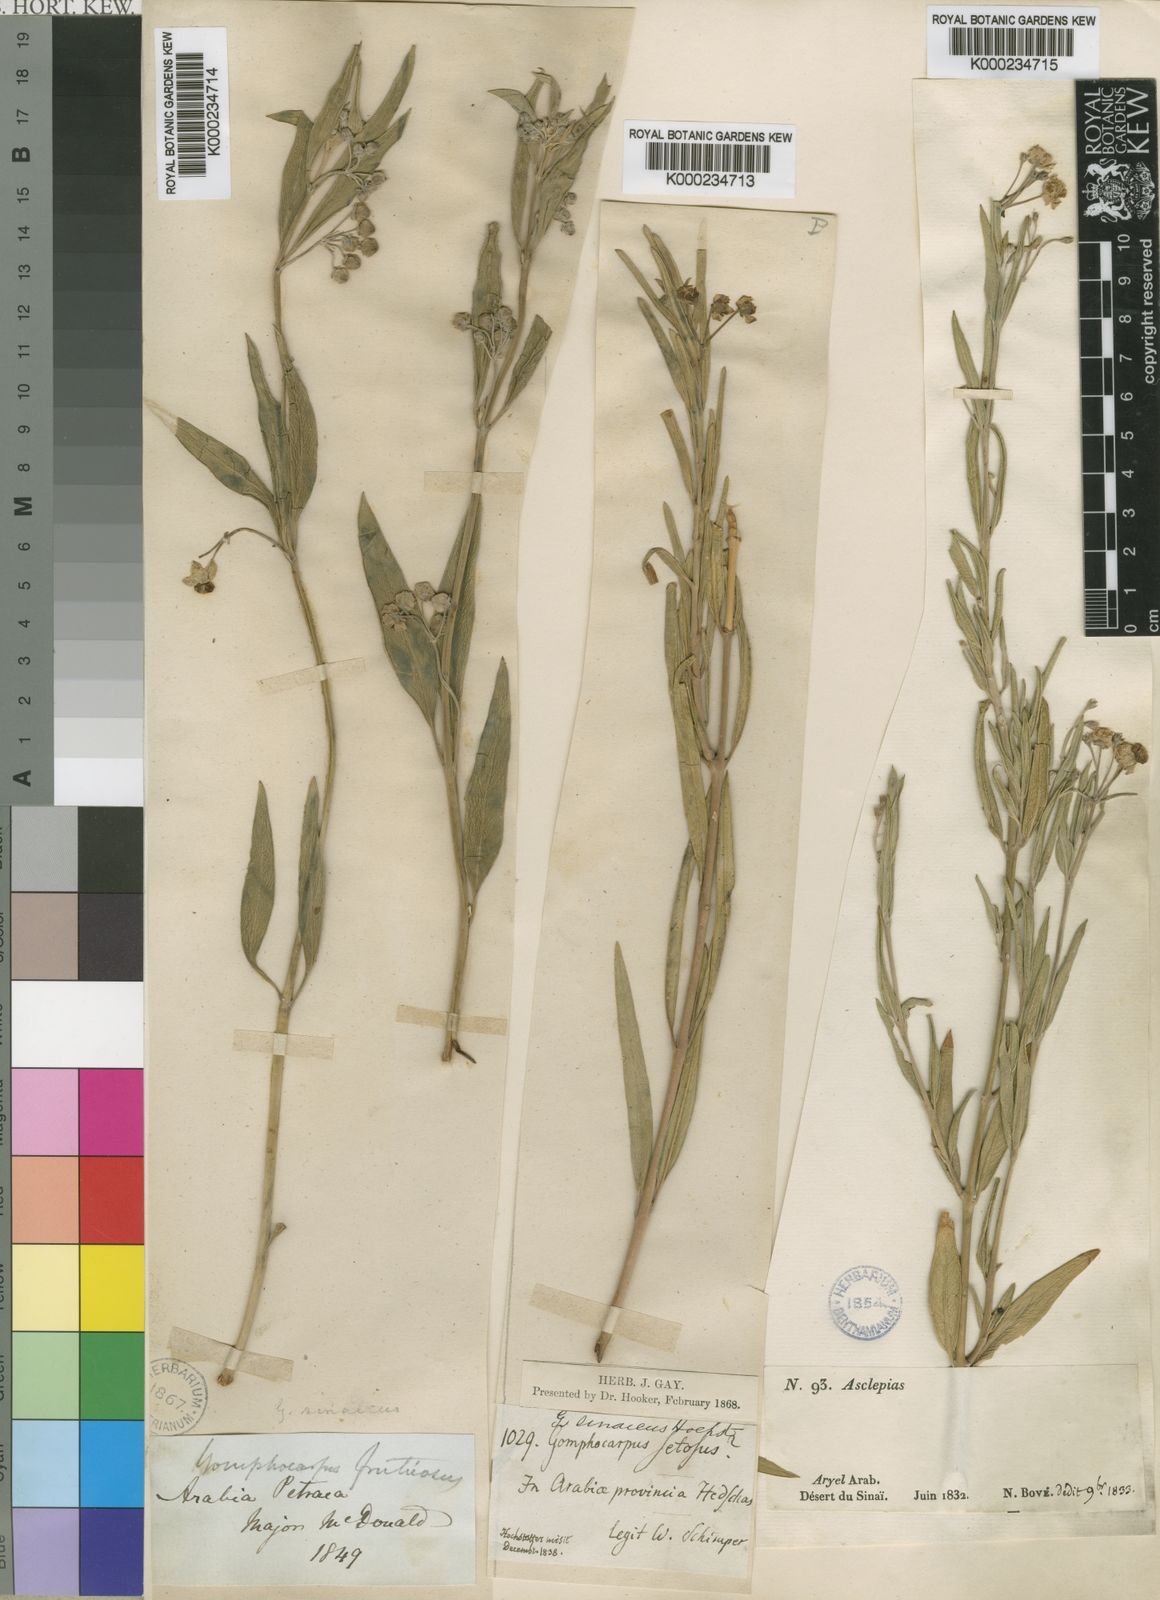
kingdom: Plantae
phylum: Tracheophyta
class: Magnoliopsida
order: Gentianales
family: Apocynaceae
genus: Gomphocarpus
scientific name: Gomphocarpus
